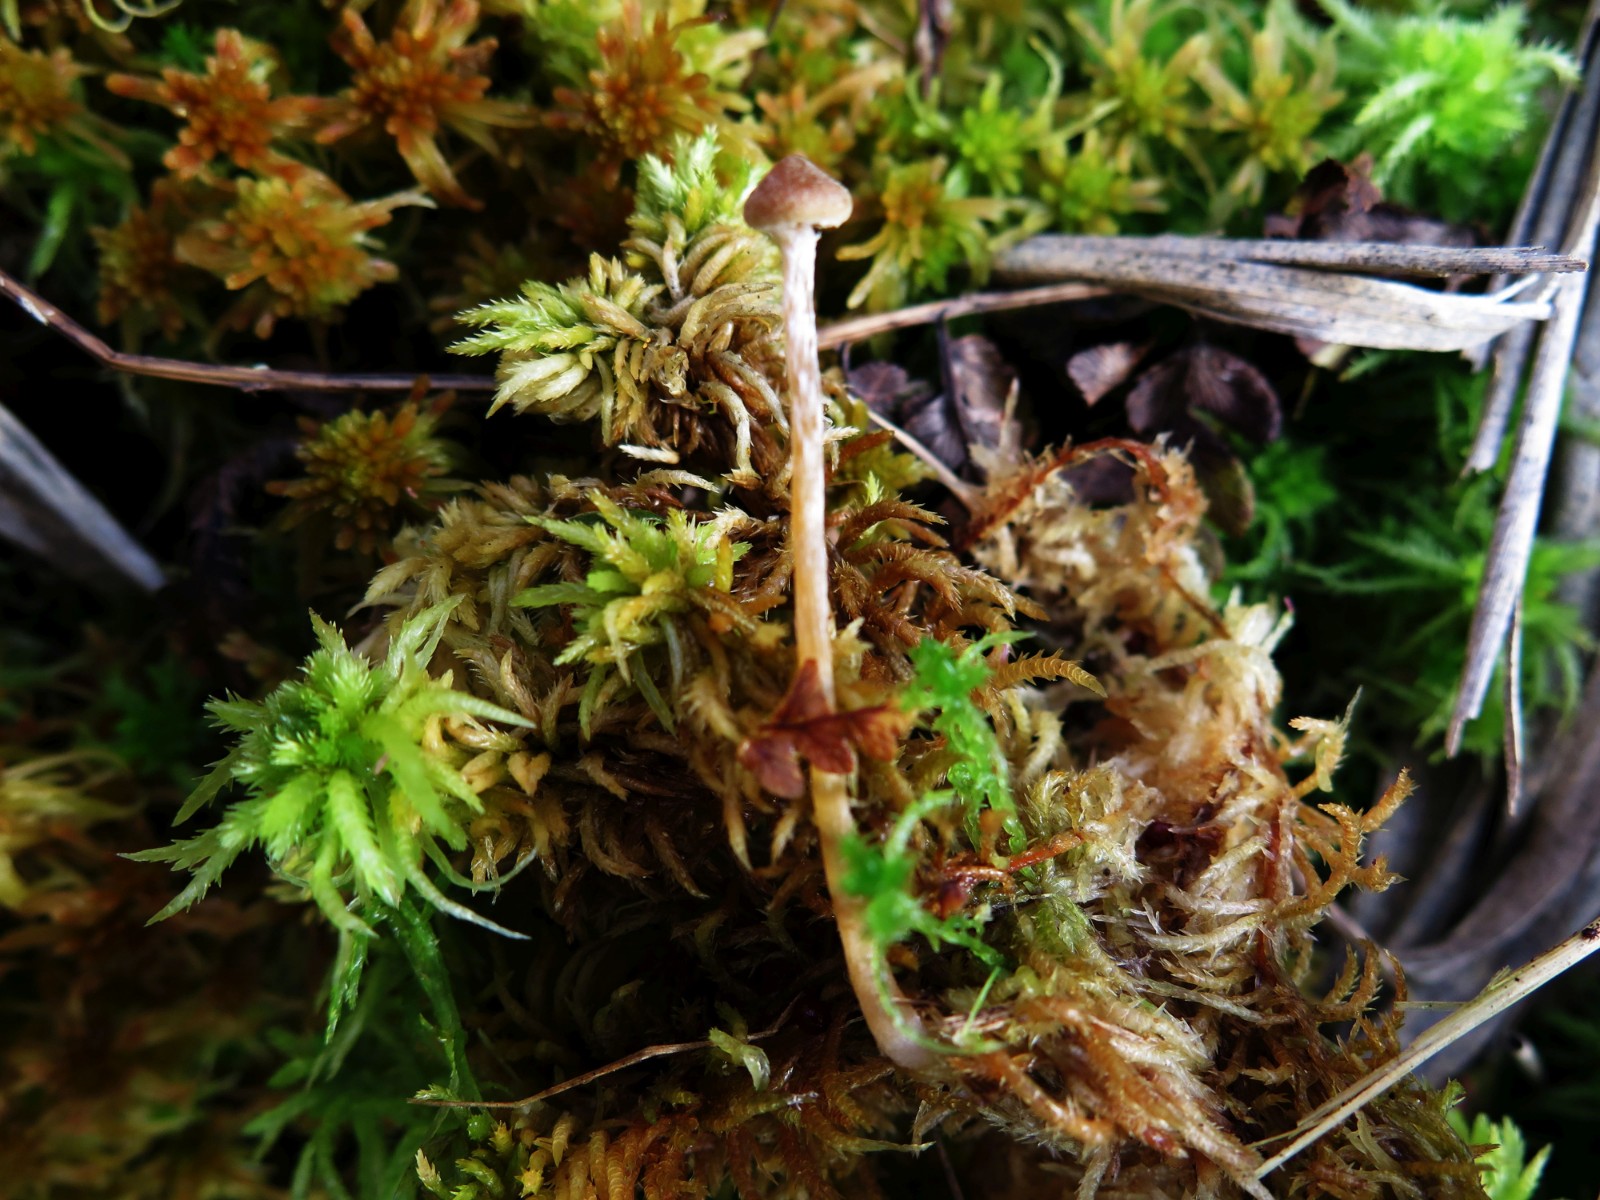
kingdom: Fungi
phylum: Basidiomycota
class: Agaricomycetes
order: Agaricales
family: Hymenogastraceae
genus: Galerina
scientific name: Galerina paludosa
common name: mose-hjelmhat
